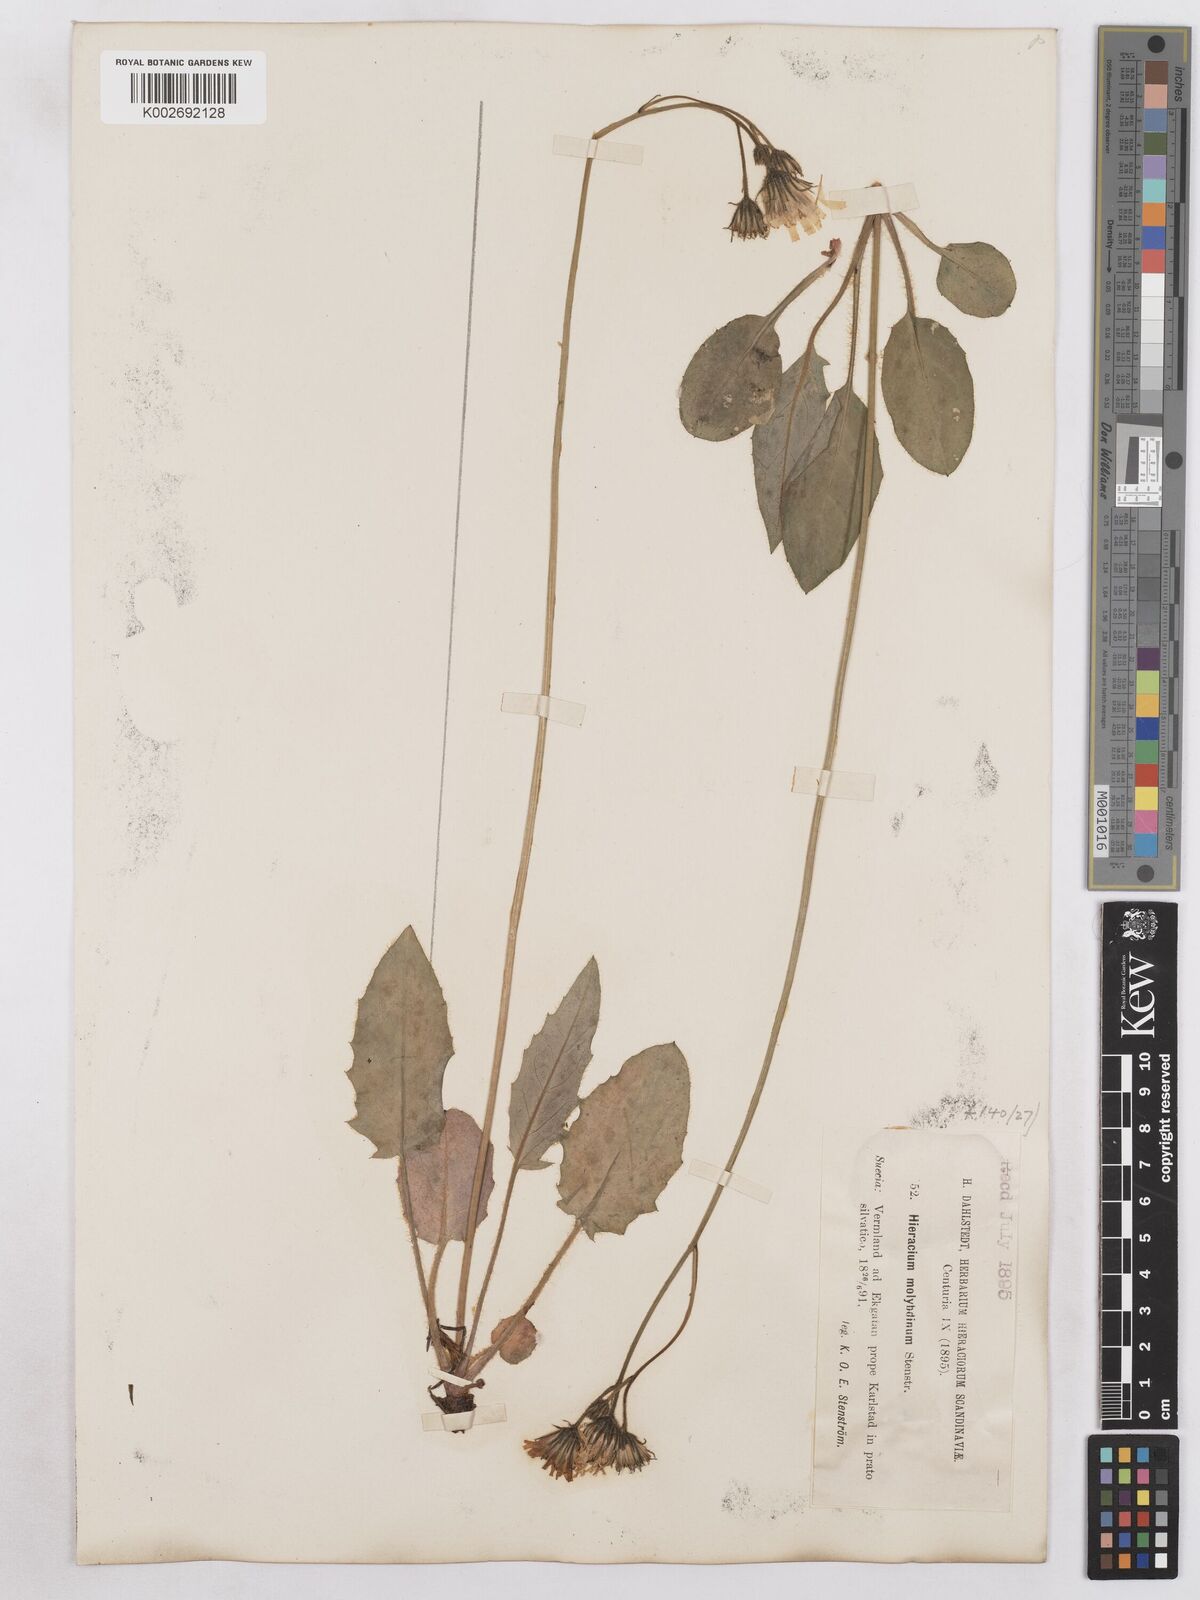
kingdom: Plantae
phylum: Tracheophyta
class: Magnoliopsida
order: Asterales
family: Asteraceae
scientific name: Asteraceae
